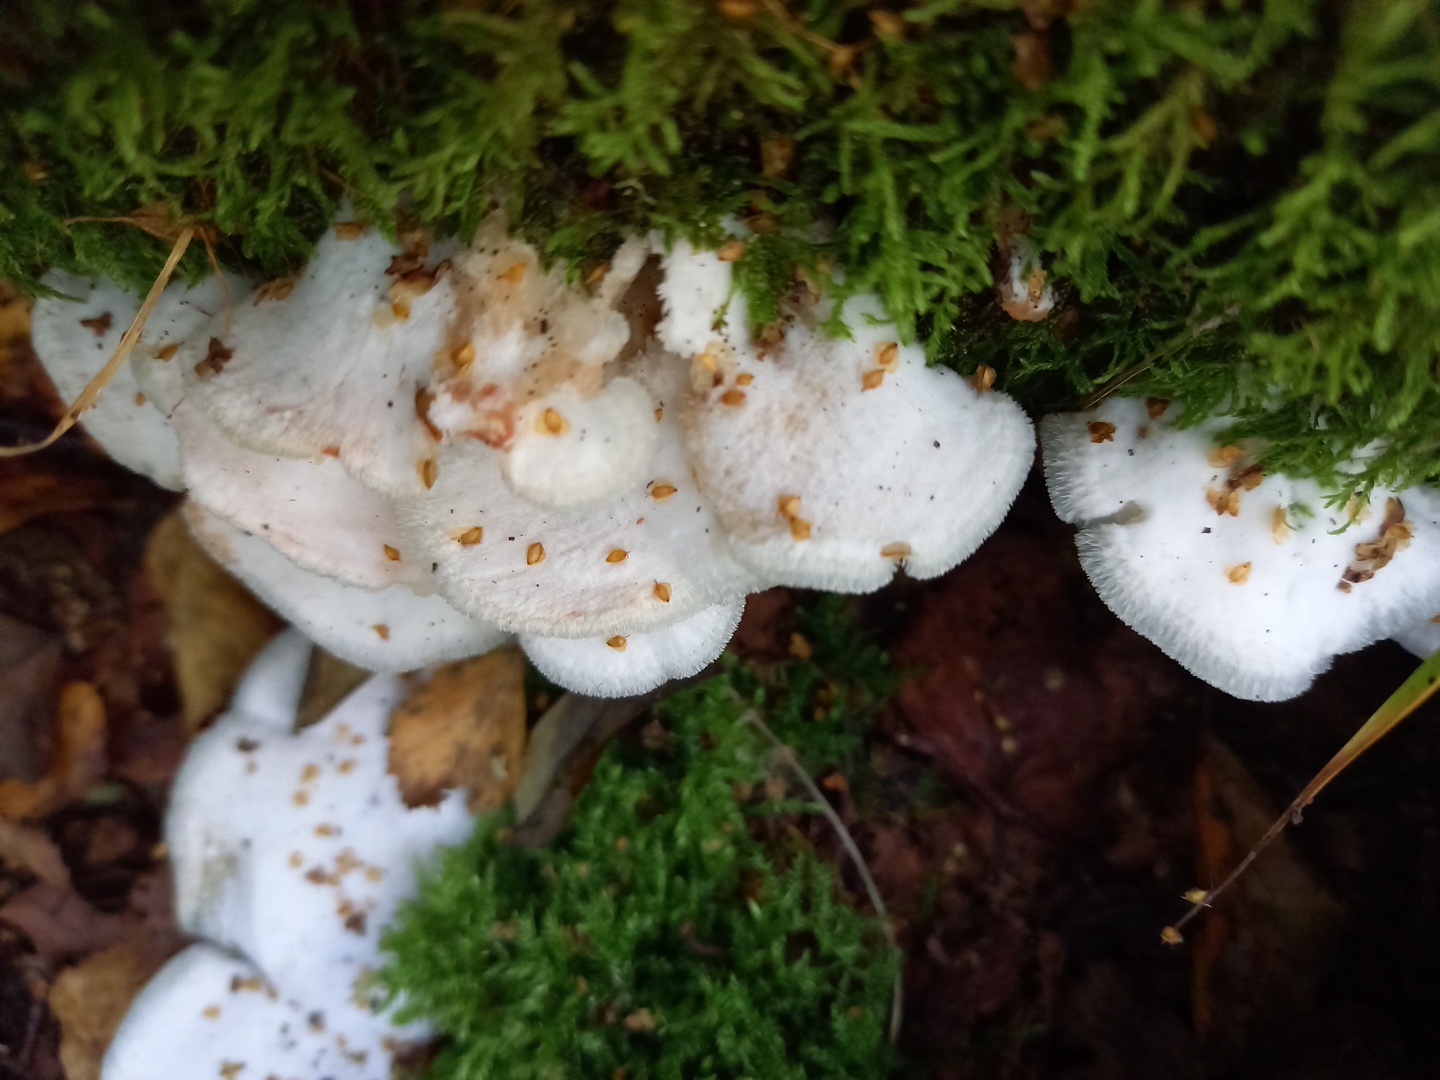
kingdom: Fungi
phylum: Basidiomycota
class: Agaricomycetes
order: Polyporales
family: Meruliaceae
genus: Phlebia
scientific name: Phlebia tremellosa
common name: bævrende åresvamp
